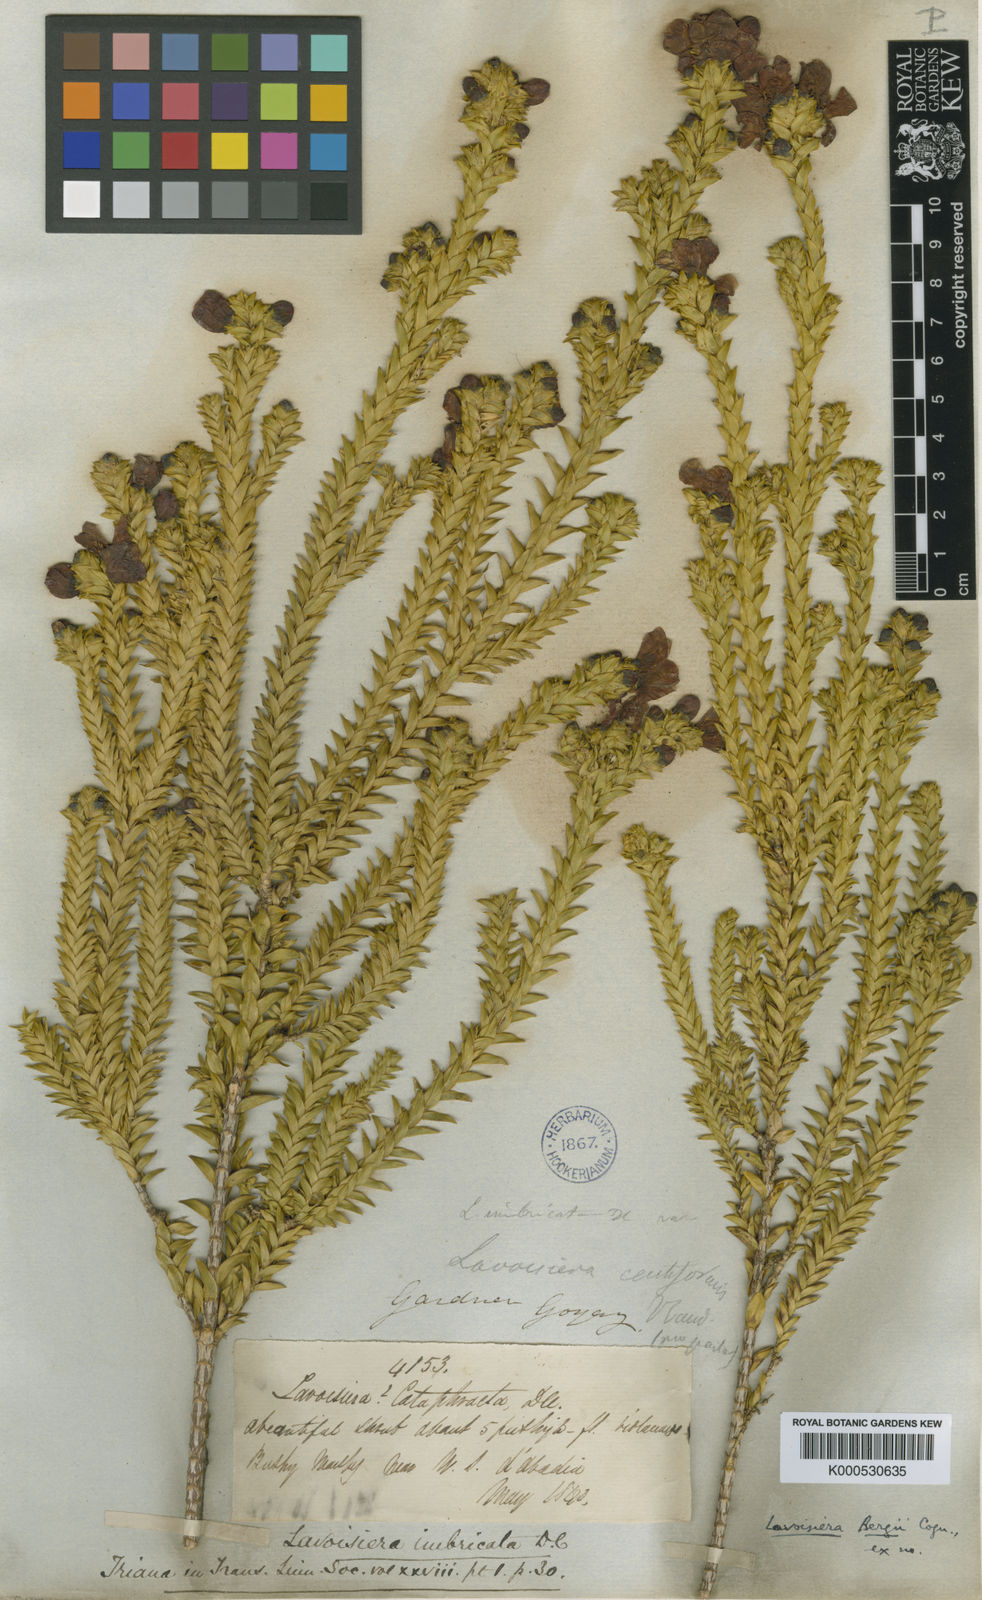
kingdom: Plantae
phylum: Tracheophyta
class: Magnoliopsida
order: Myrtales
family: Melastomataceae
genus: Microlicia
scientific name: Microlicia cataphracta
